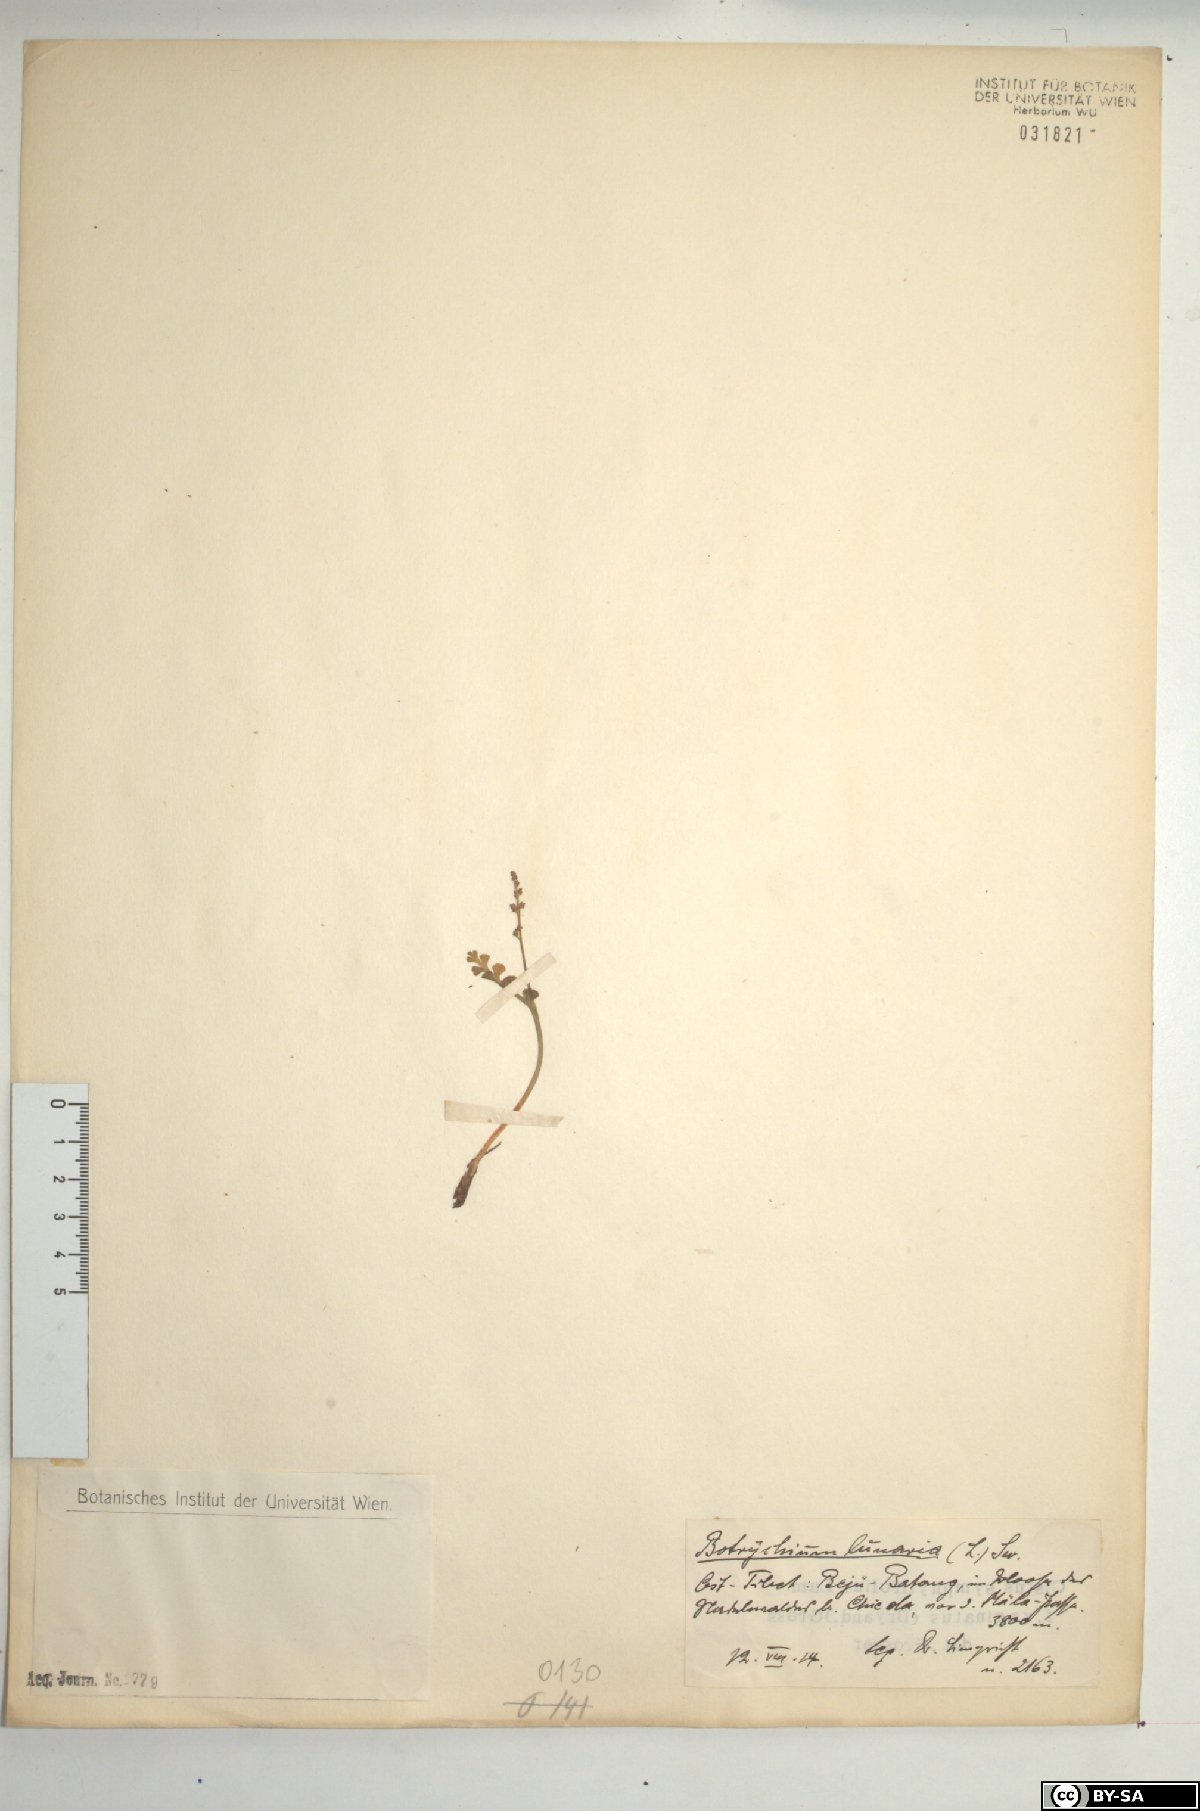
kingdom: Plantae
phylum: Tracheophyta
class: Polypodiopsida
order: Ophioglossales
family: Ophioglossaceae
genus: Botrychium
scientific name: Botrychium lunaria
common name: Moonwort
